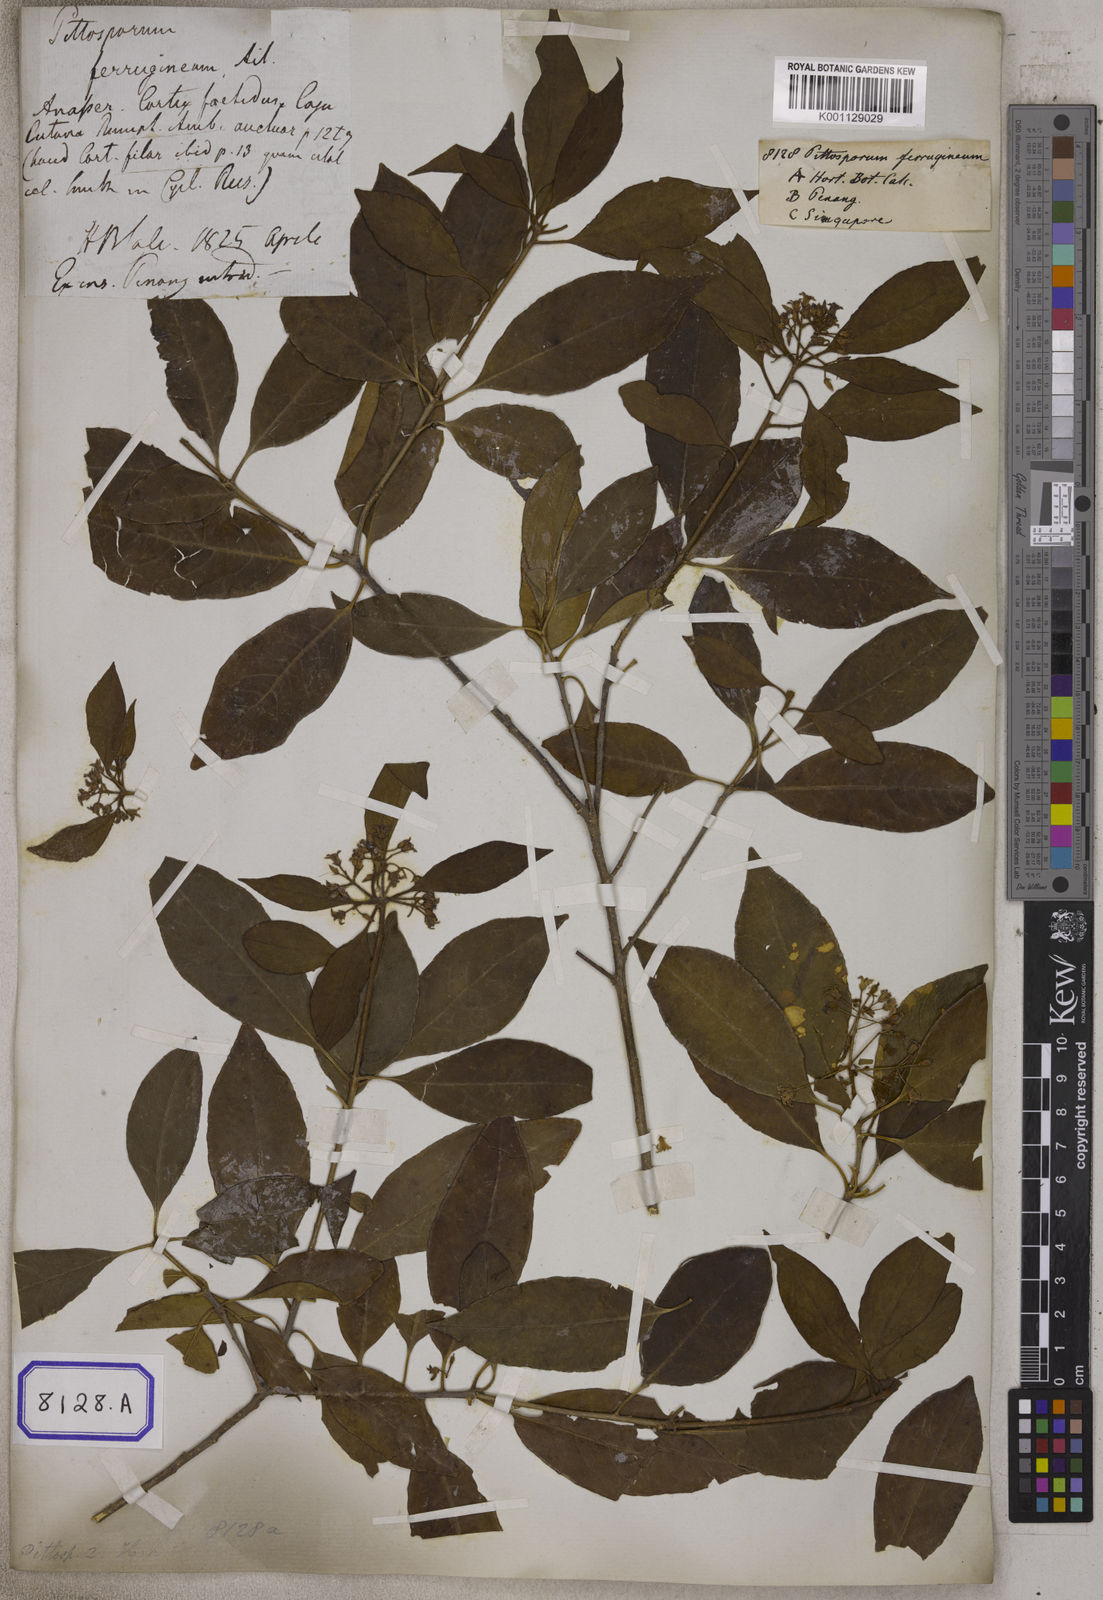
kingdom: Plantae
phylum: Tracheophyta
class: Magnoliopsida
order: Apiales
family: Pittosporaceae
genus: Pittosporum
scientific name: Pittosporum ferrugineum
